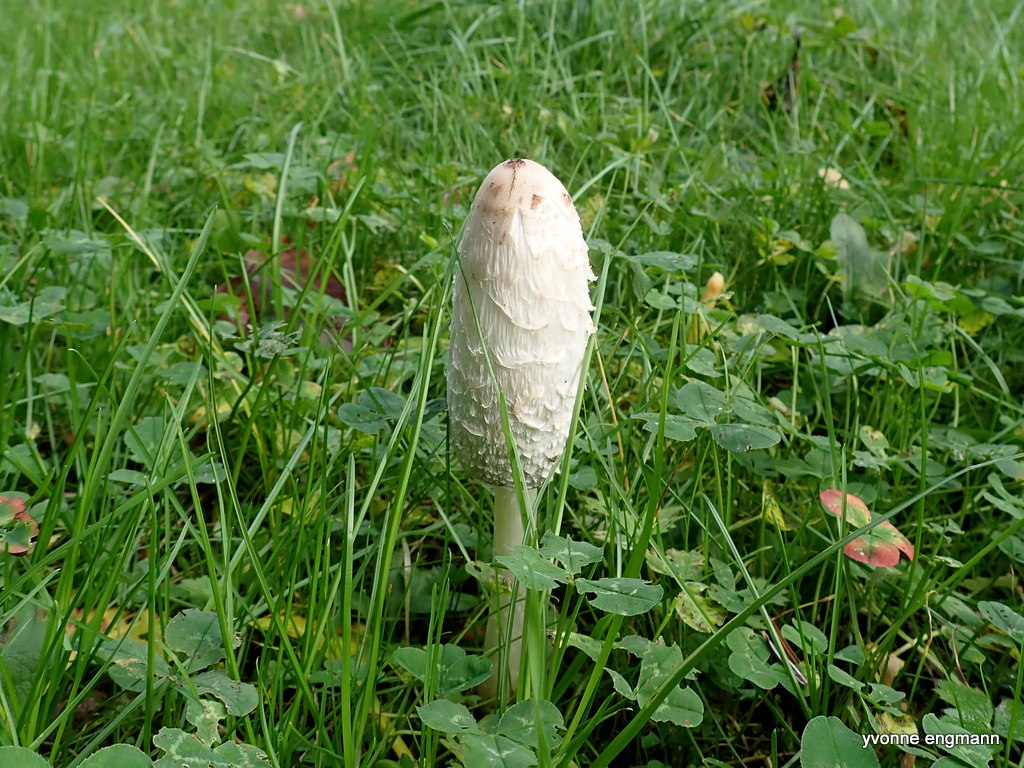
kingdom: Fungi
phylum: Basidiomycota
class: Agaricomycetes
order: Agaricales
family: Agaricaceae
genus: Coprinus
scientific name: Coprinus comatus
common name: stor parykhat
